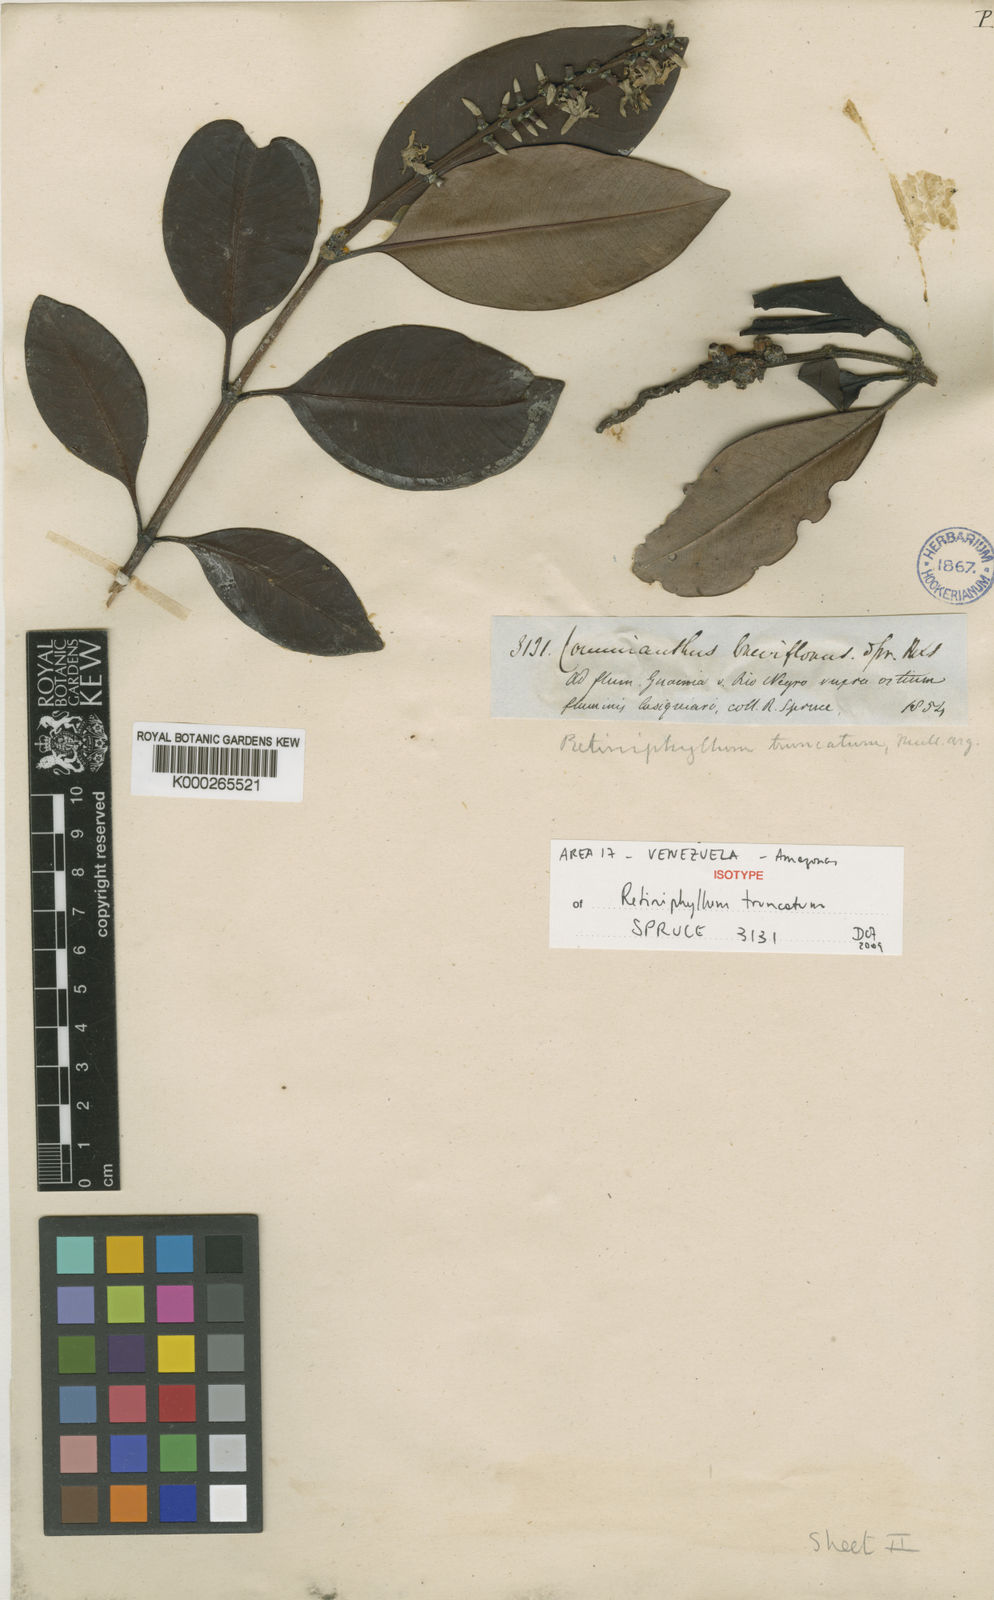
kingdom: Plantae
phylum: Tracheophyta
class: Magnoliopsida
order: Gentianales
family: Rubiaceae
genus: Retiniphyllum
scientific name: Retiniphyllum
